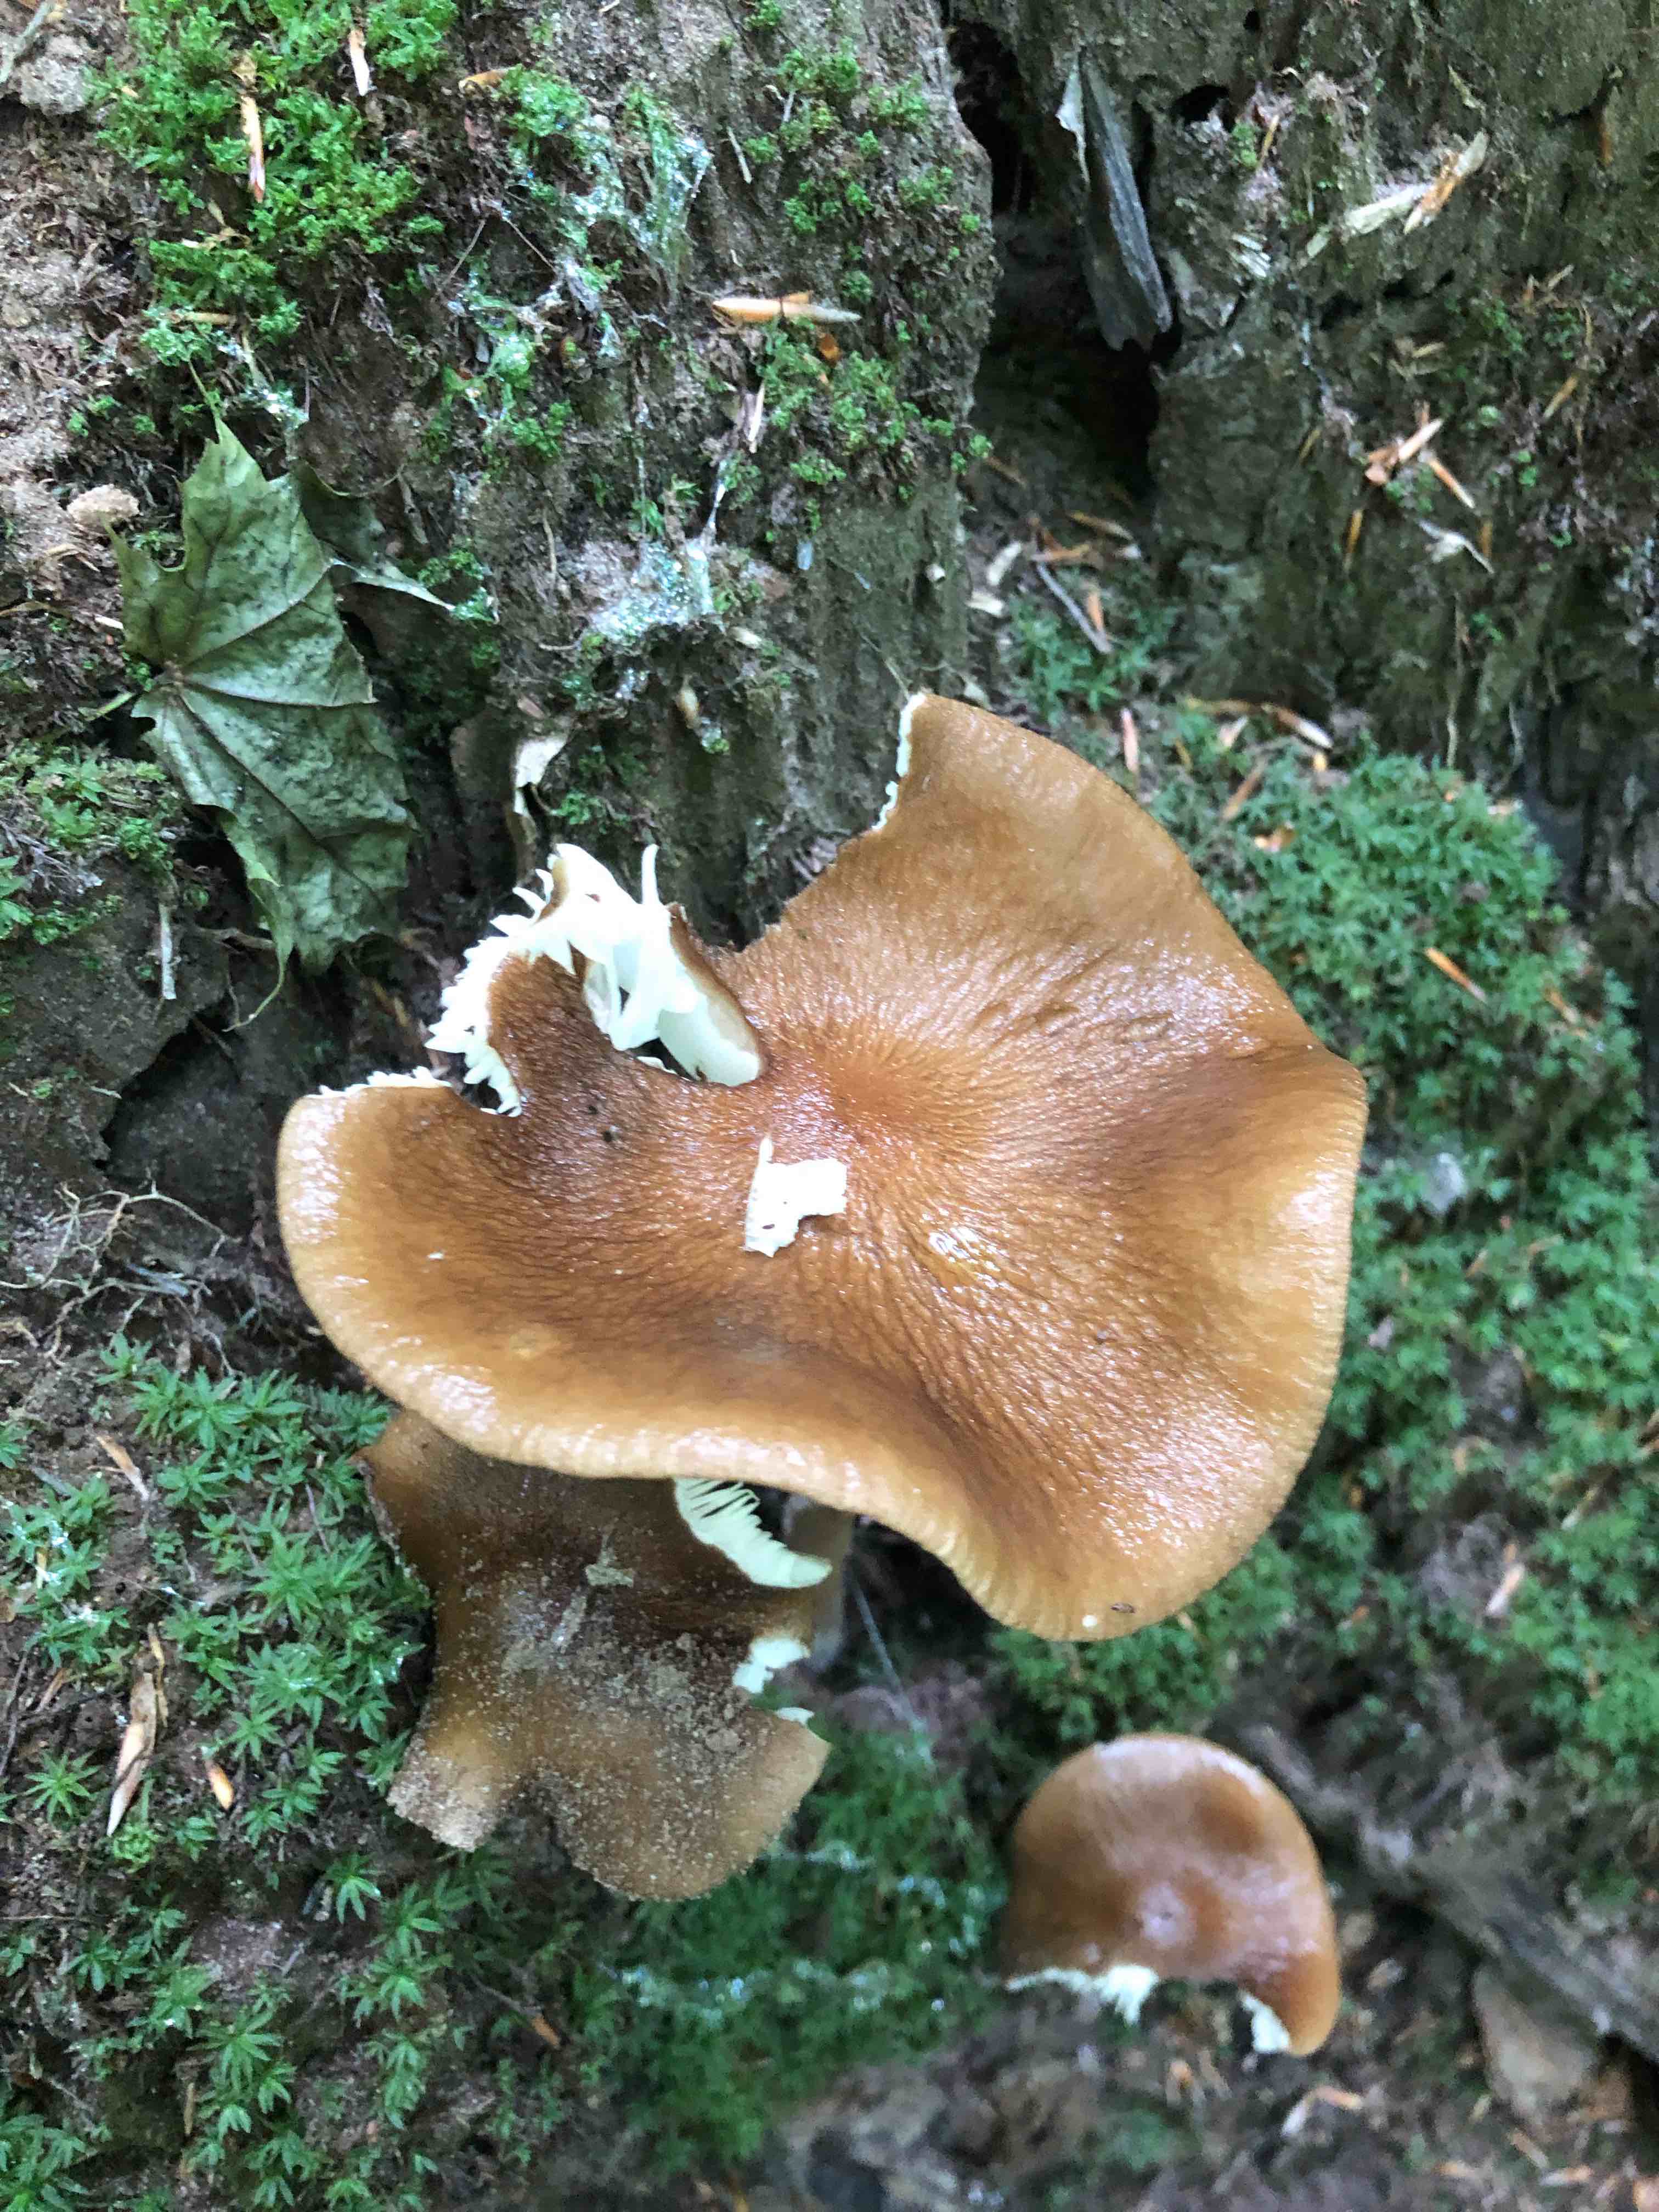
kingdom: Fungi
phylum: Basidiomycota
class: Agaricomycetes
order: Agaricales
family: Physalacriaceae
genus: Hymenopellis
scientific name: Hymenopellis radicata
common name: almindelig pælerodshat
